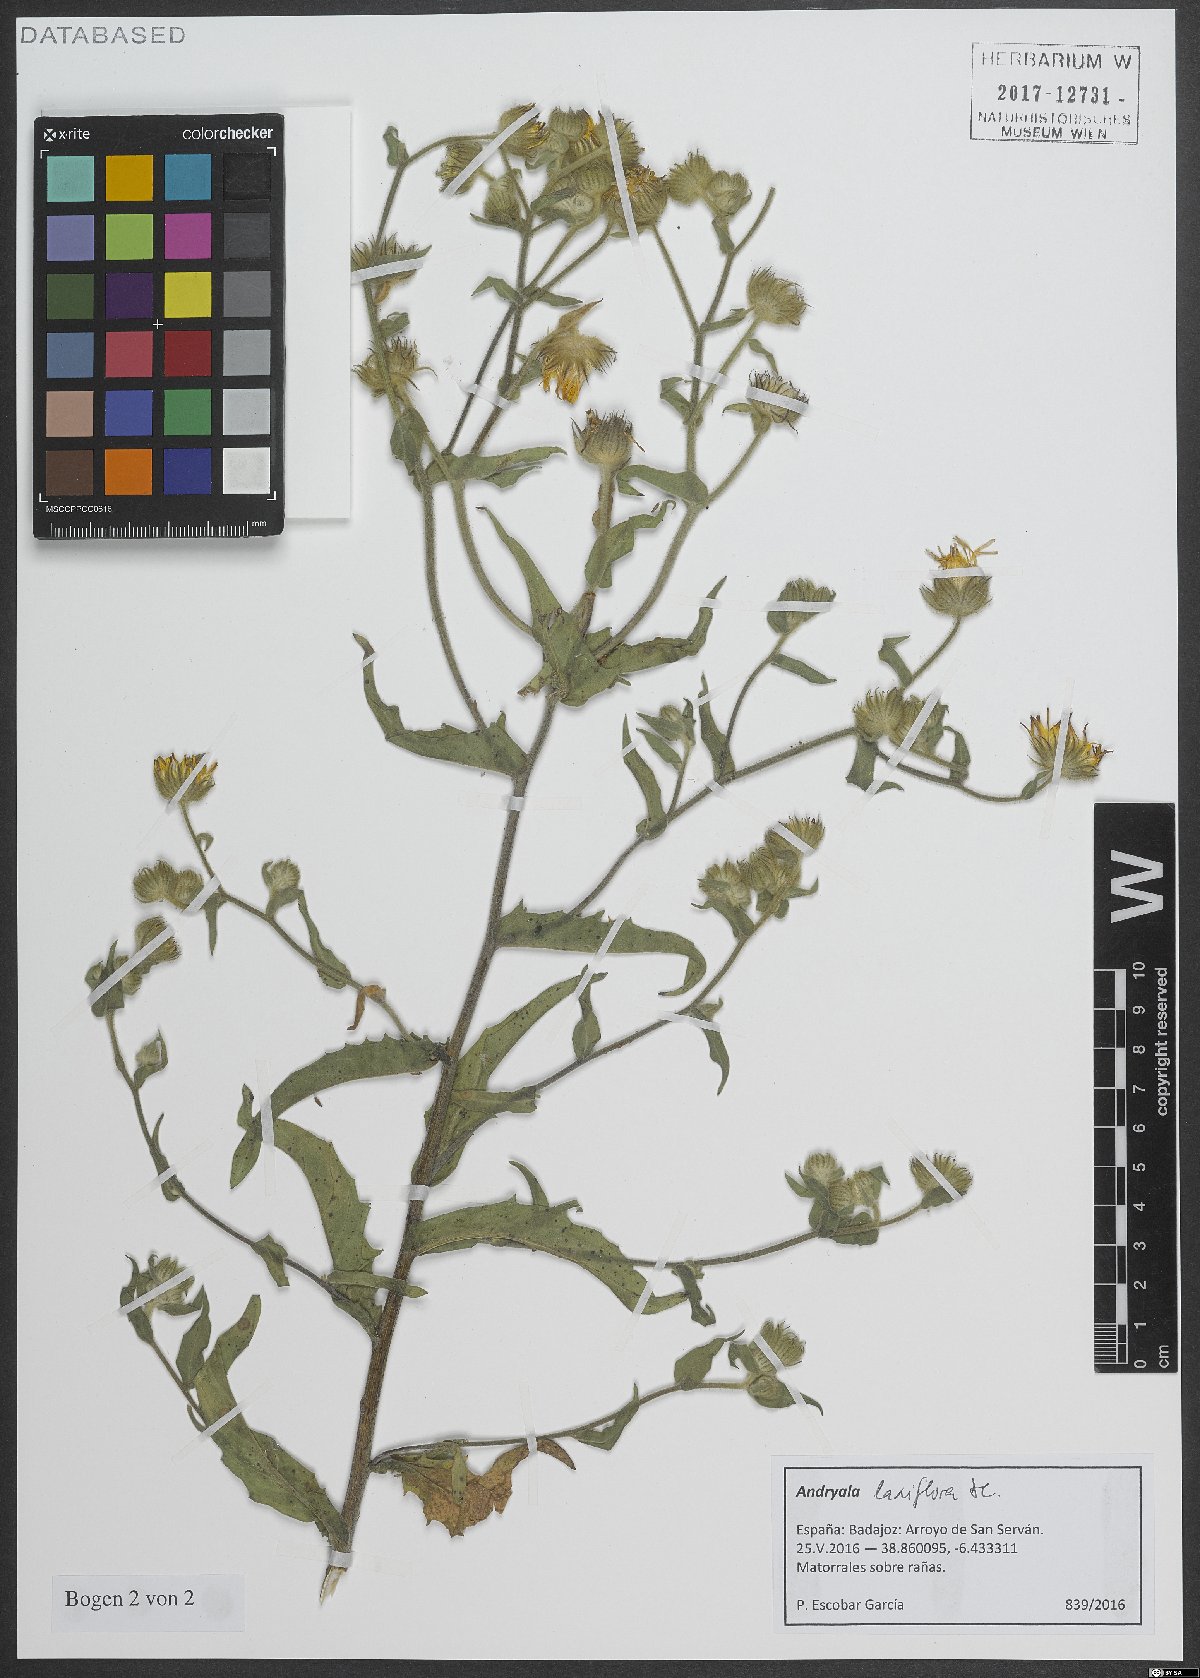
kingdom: Plantae
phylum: Tracheophyta
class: Magnoliopsida
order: Asterales
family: Asteraceae
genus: Andryala
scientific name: Andryala rothia
